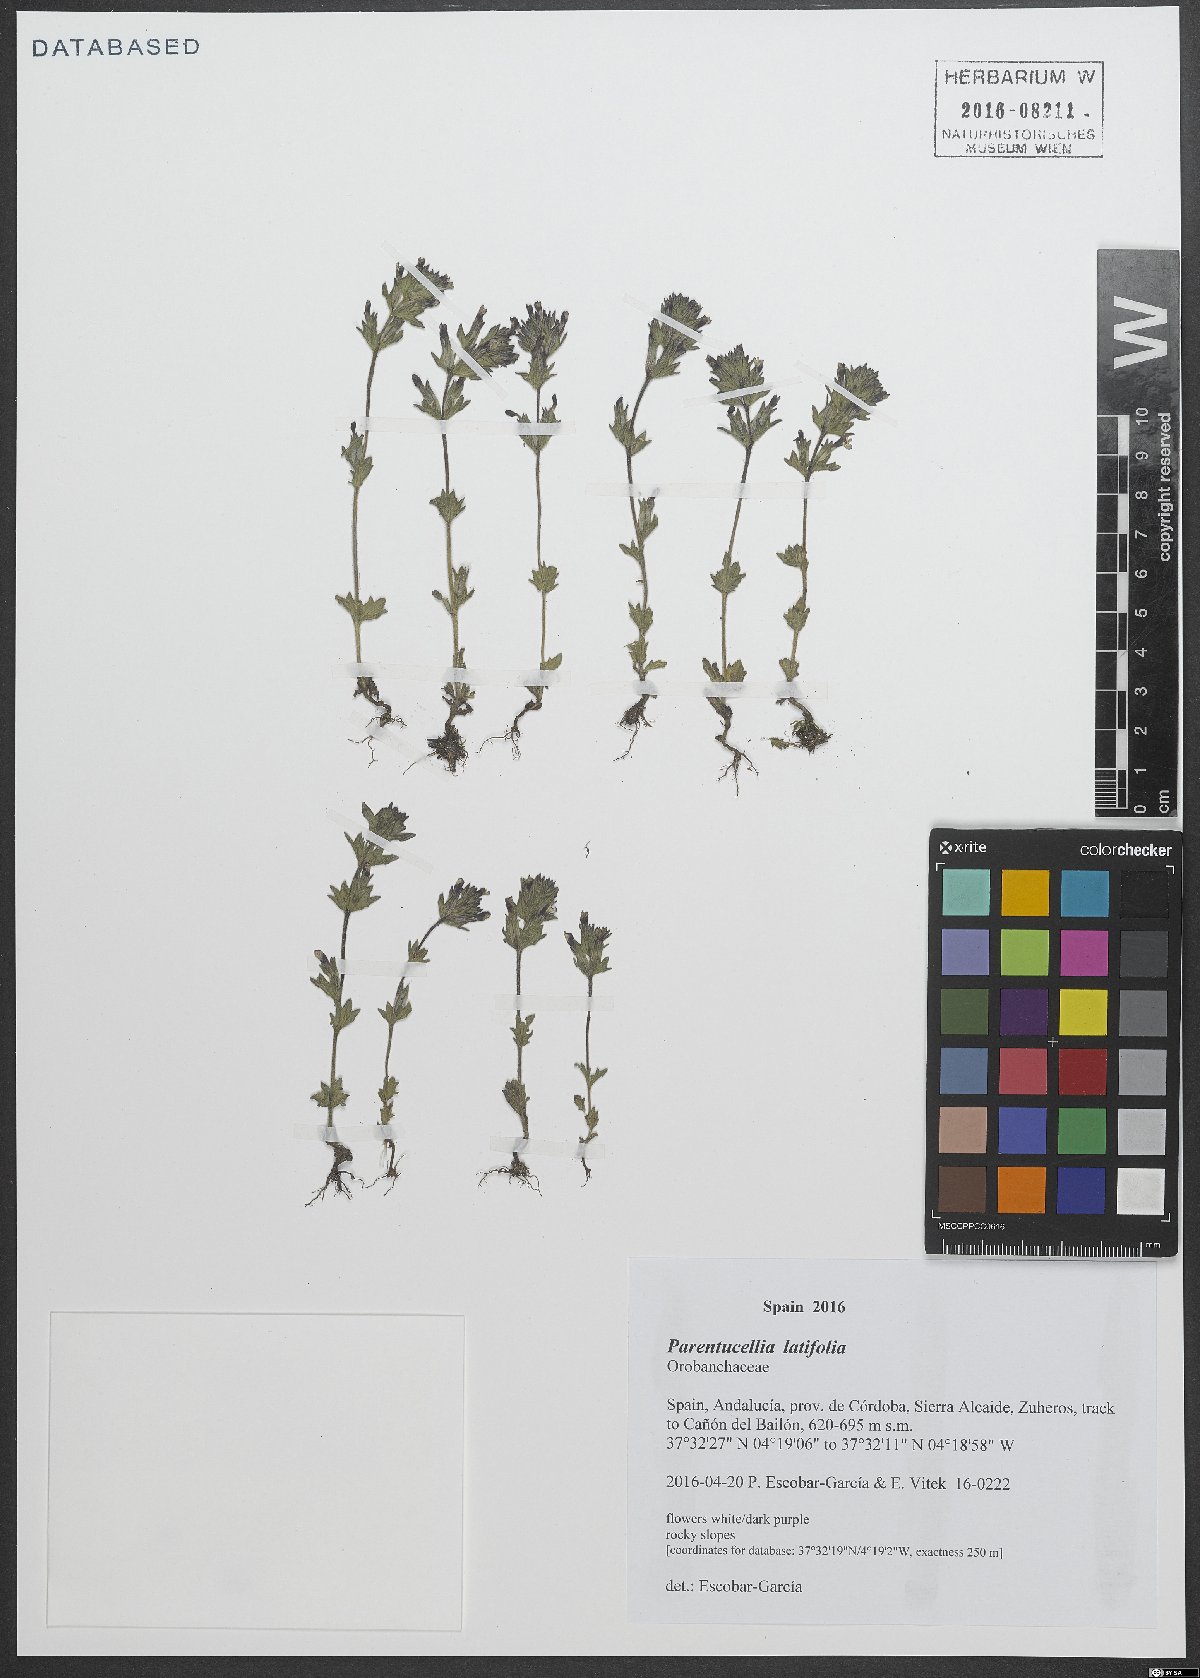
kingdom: Plantae
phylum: Tracheophyta
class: Magnoliopsida
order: Lamiales
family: Orobanchaceae
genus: Parentucellia
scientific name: Parentucellia latifolia
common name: Broadleaf glandweed
